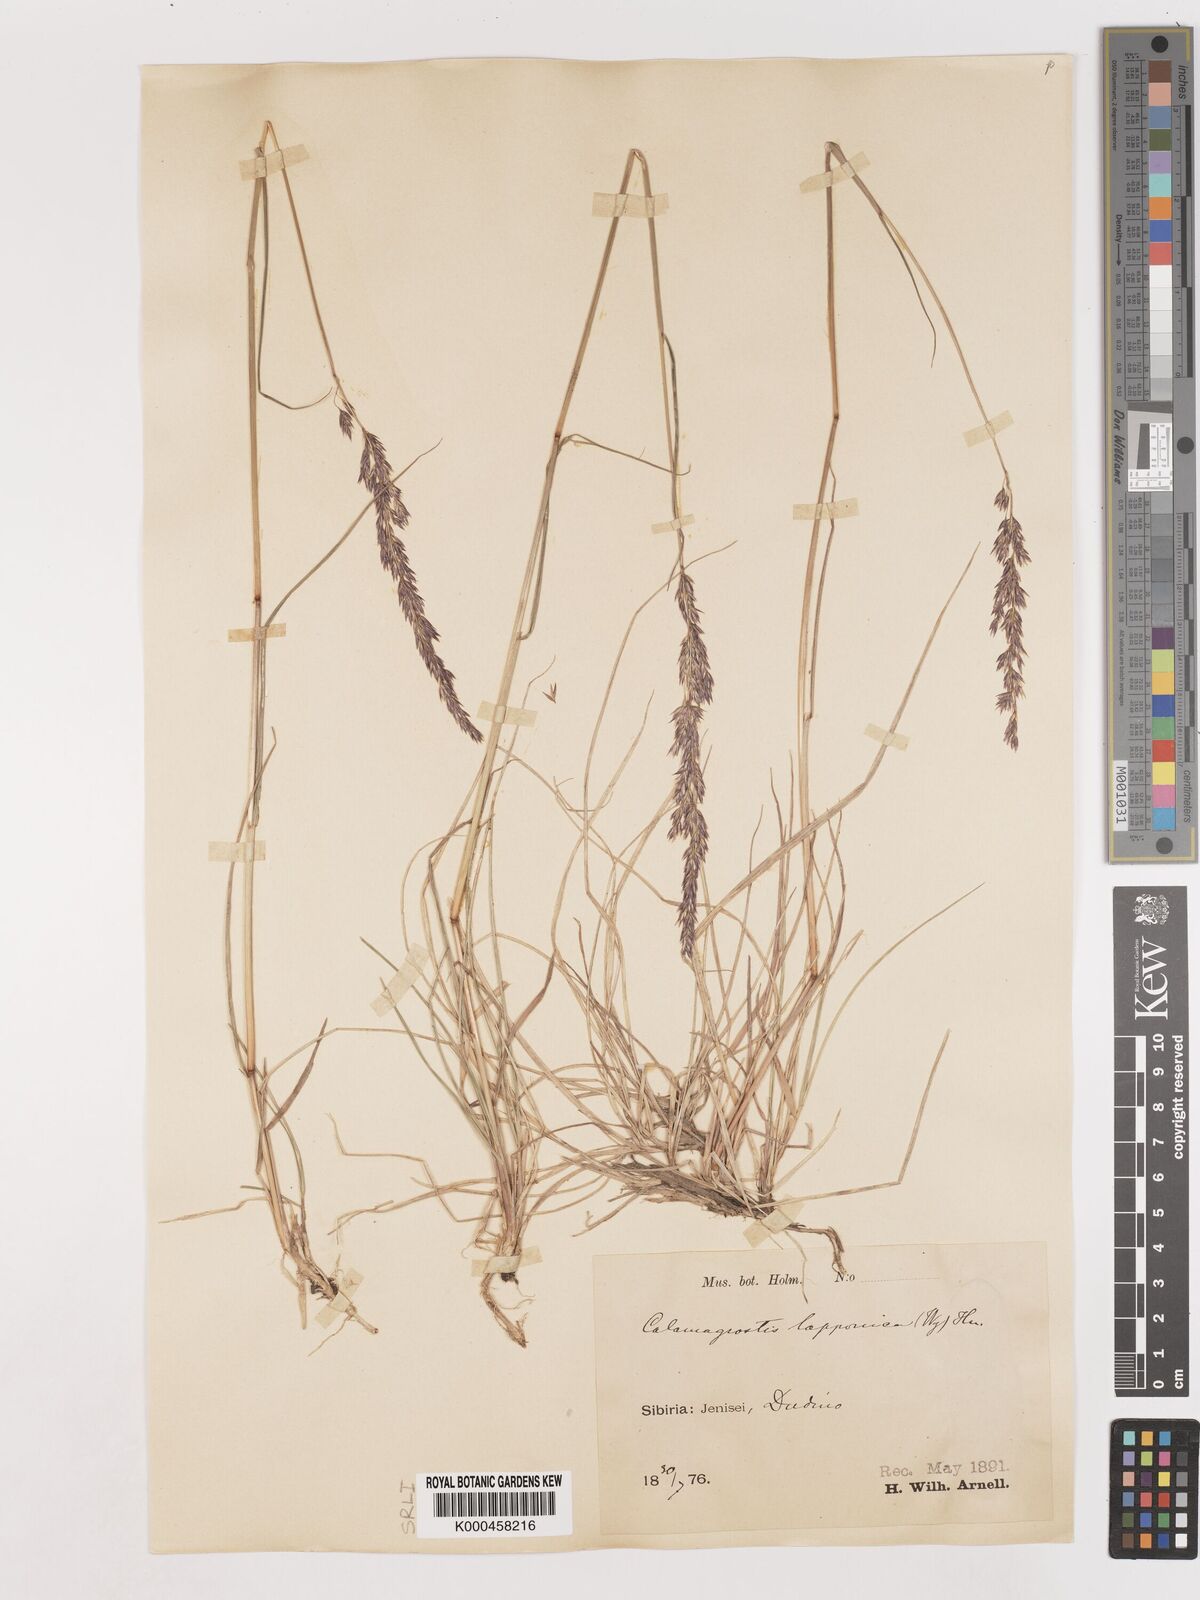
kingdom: Plantae
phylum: Tracheophyta
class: Liliopsida
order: Poales
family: Poaceae
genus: Calamagrostis
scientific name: Calamagrostis
